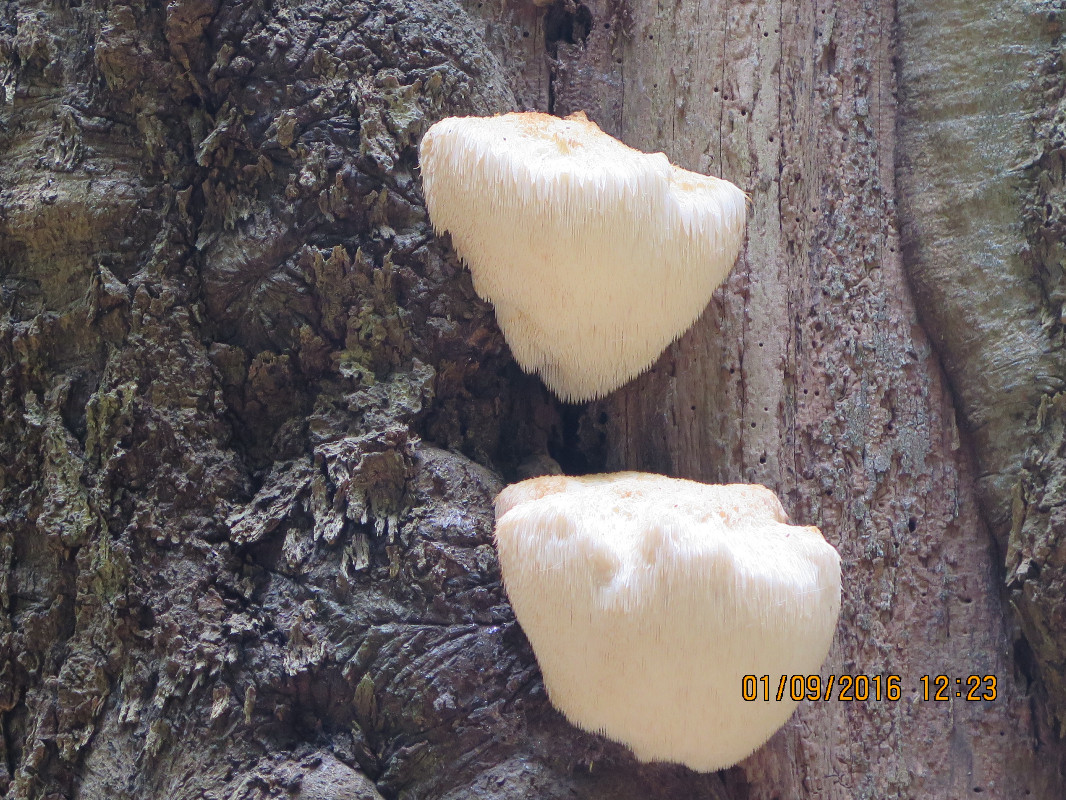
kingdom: Fungi
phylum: Basidiomycota
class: Agaricomycetes
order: Russulales
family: Hericiaceae
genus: Hericium
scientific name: Hericium erinaceus
